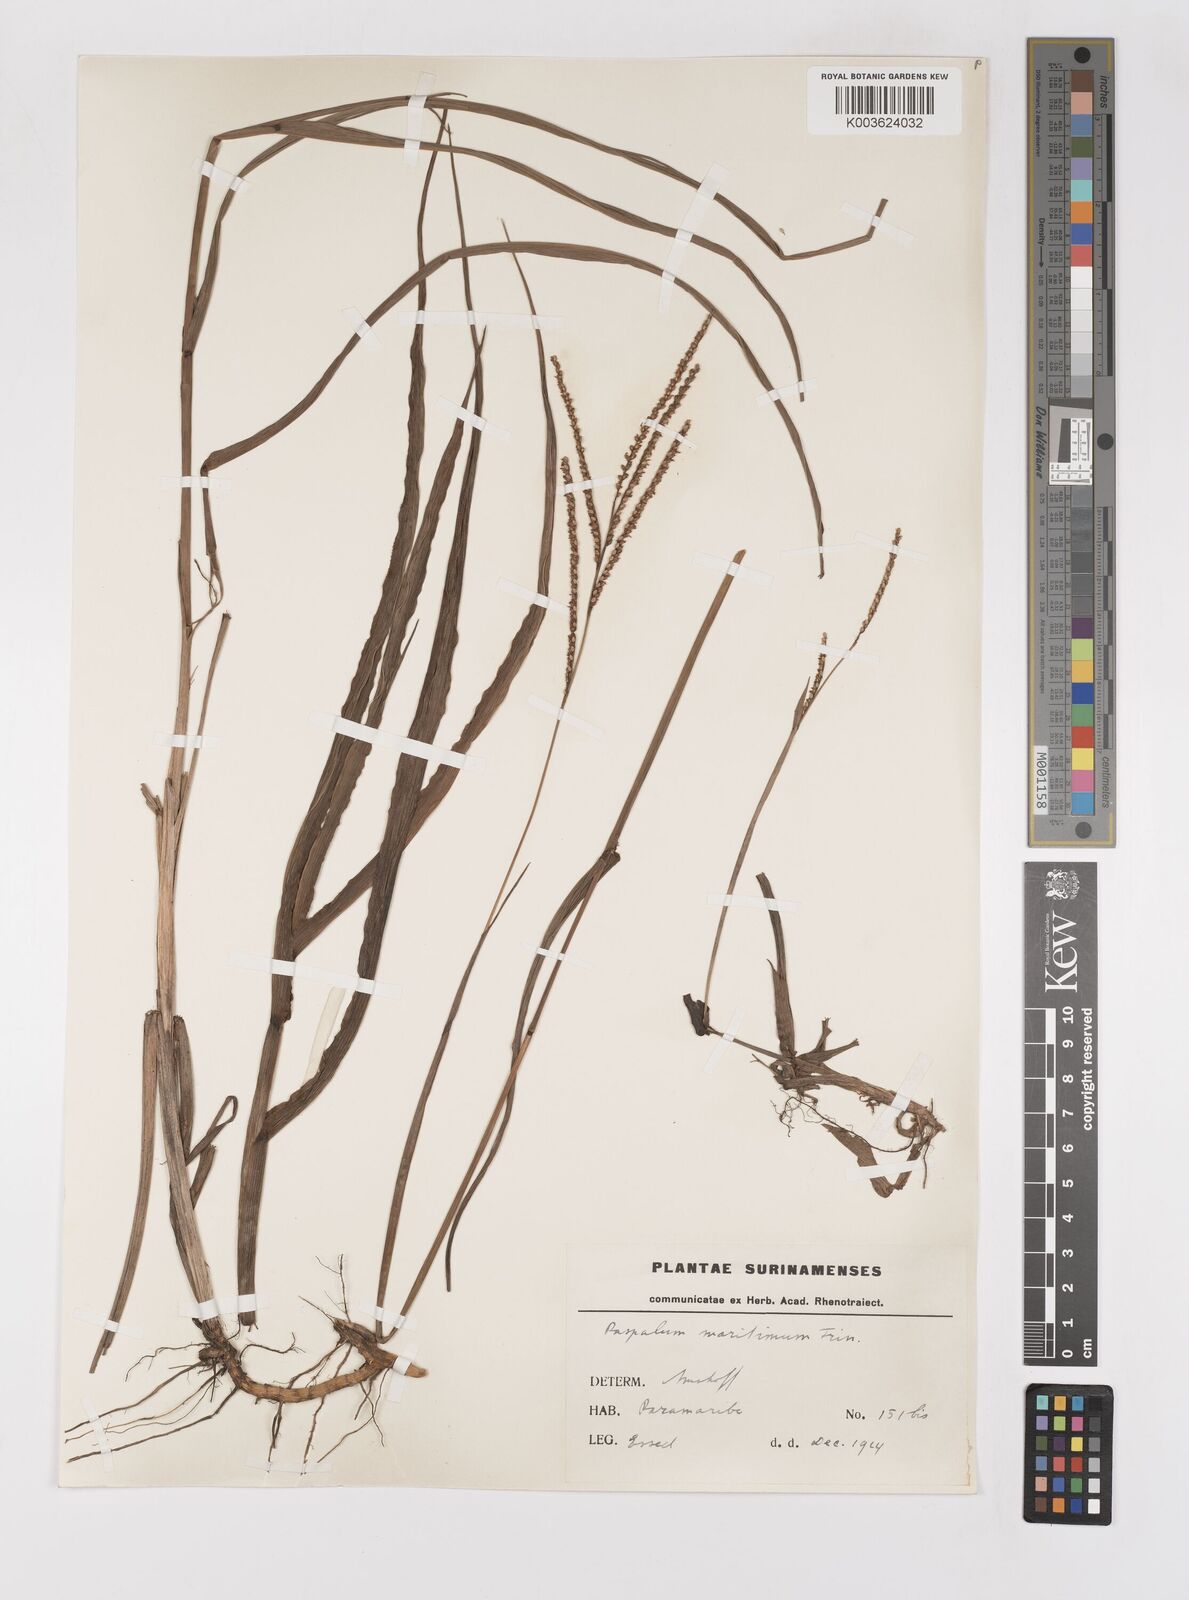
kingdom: Plantae
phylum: Tracheophyta
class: Liliopsida
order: Poales
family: Poaceae
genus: Paspalum
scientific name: Paspalum maritimum
